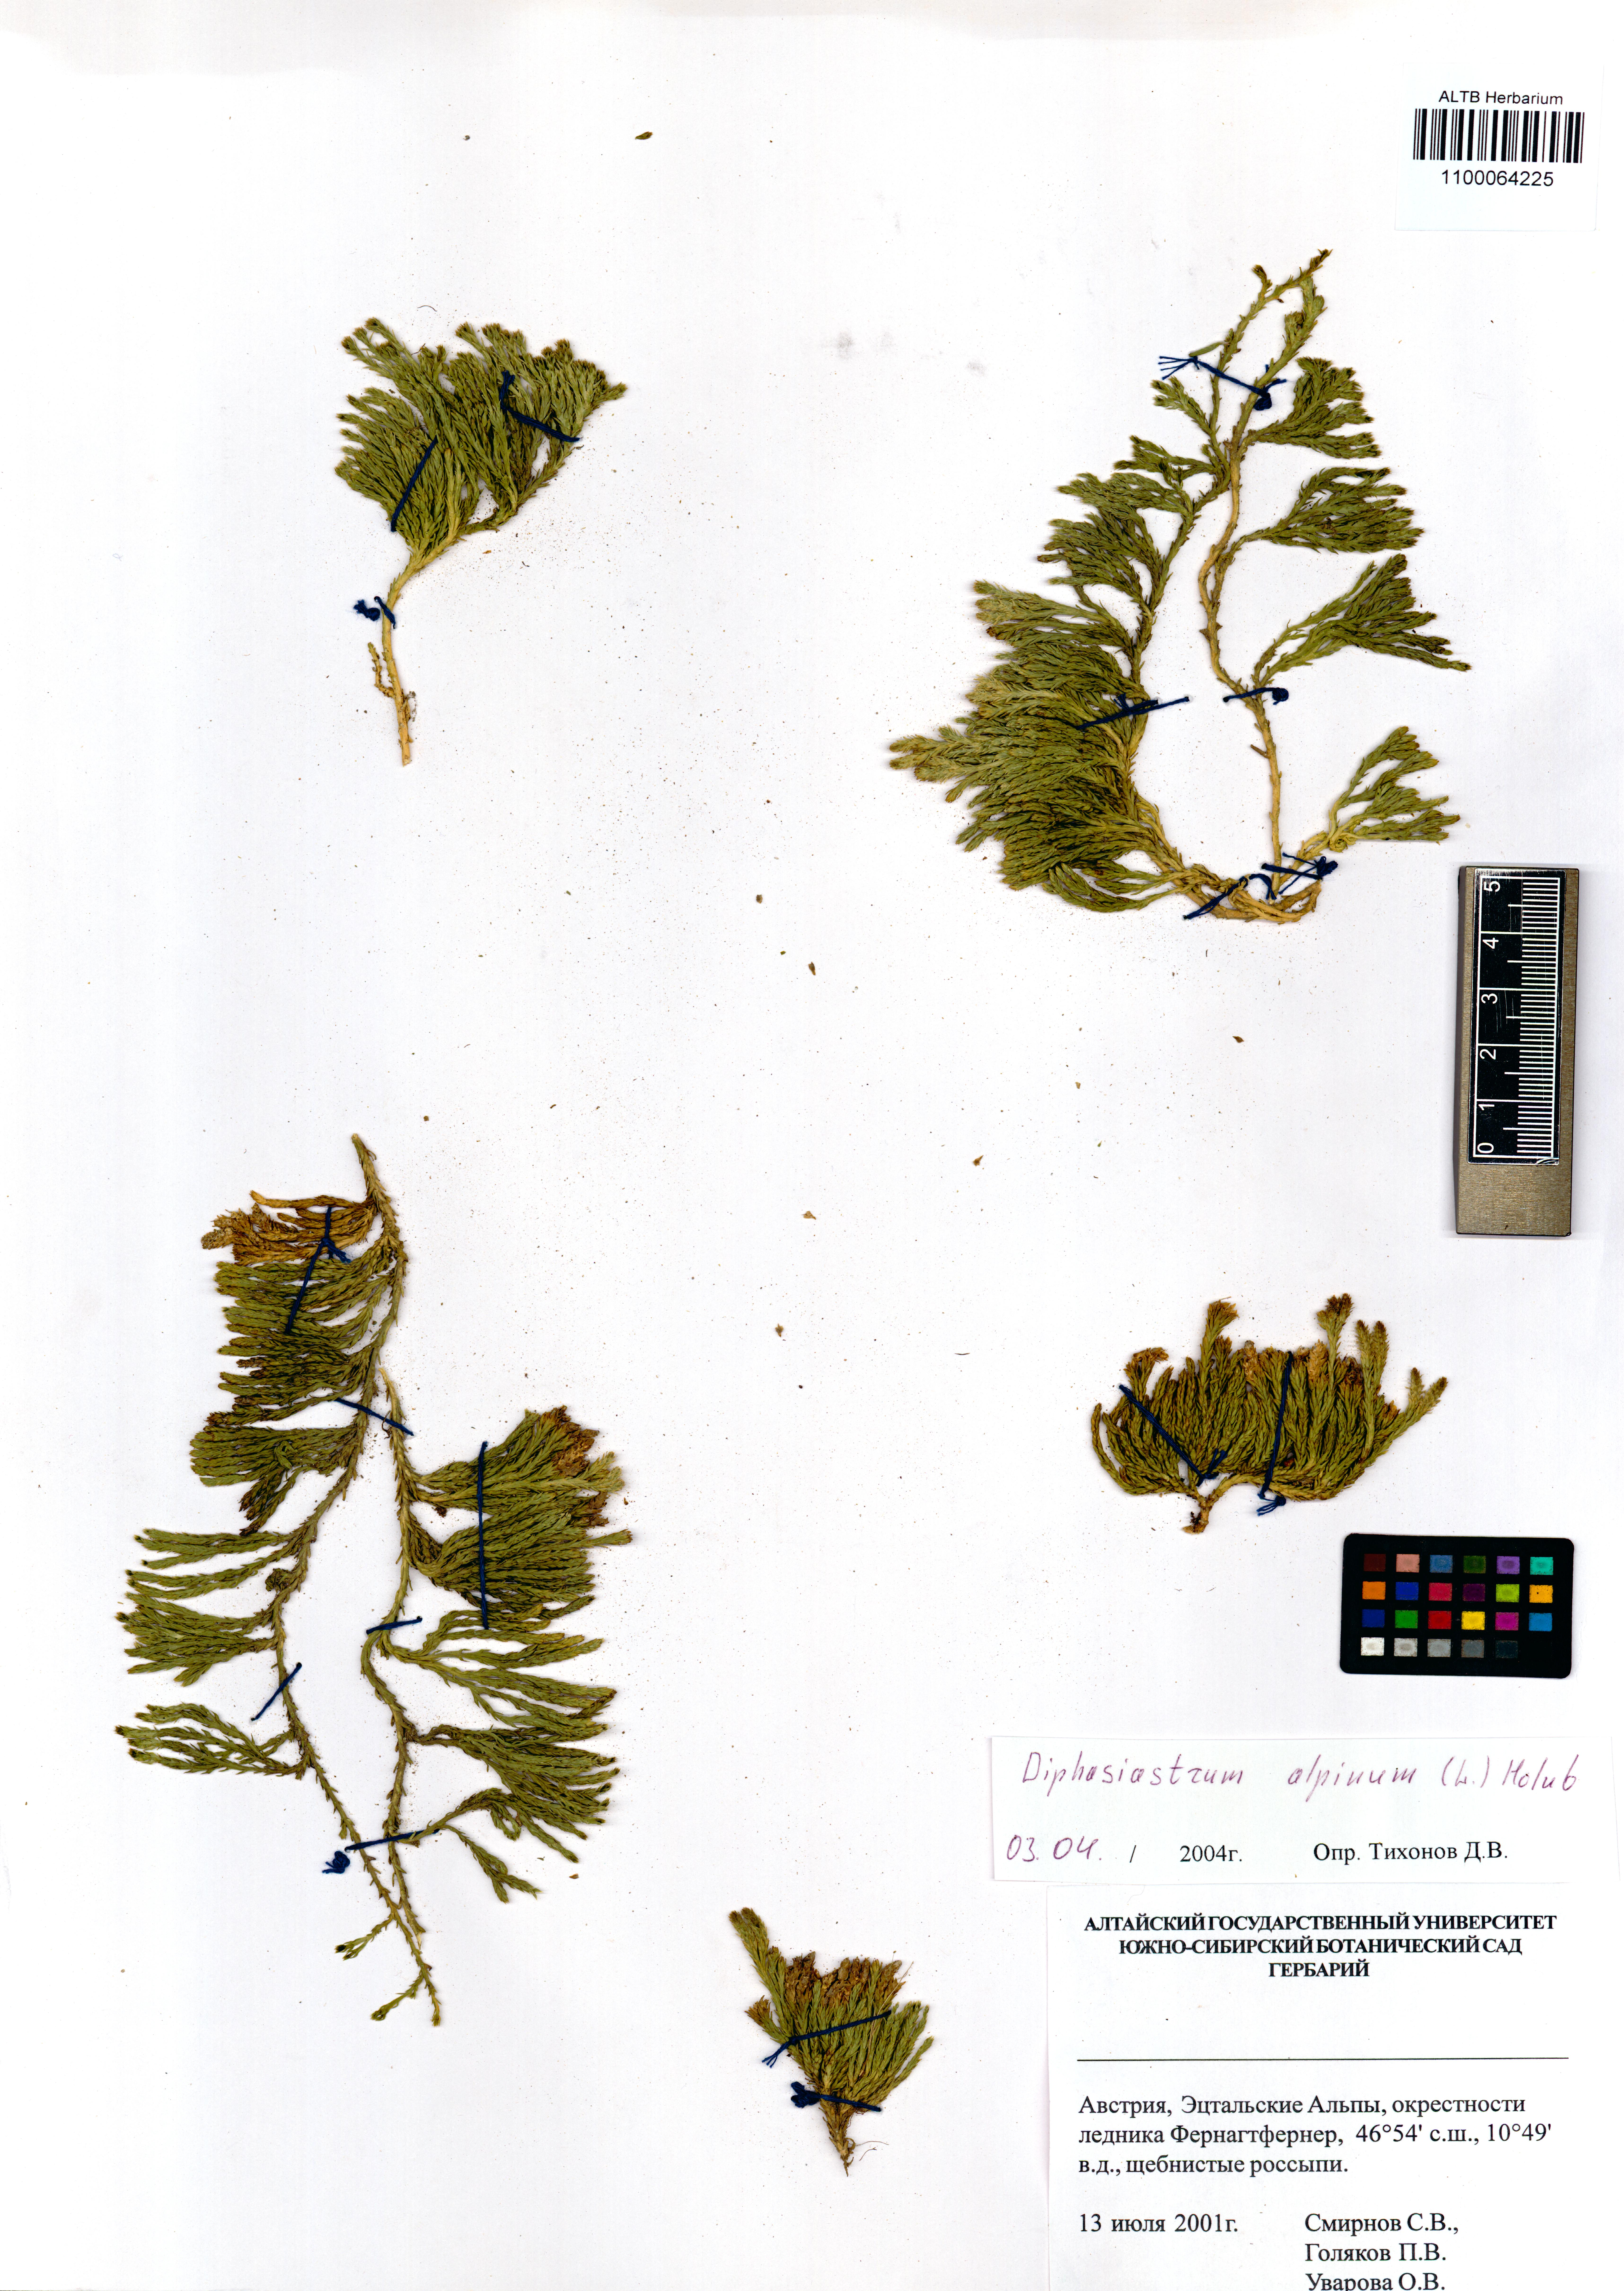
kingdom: Plantae
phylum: Tracheophyta
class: Lycopodiopsida
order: Lycopodiales
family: Lycopodiaceae
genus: Diphasiastrum
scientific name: Diphasiastrum alpinum
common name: Alpine clubmoss
